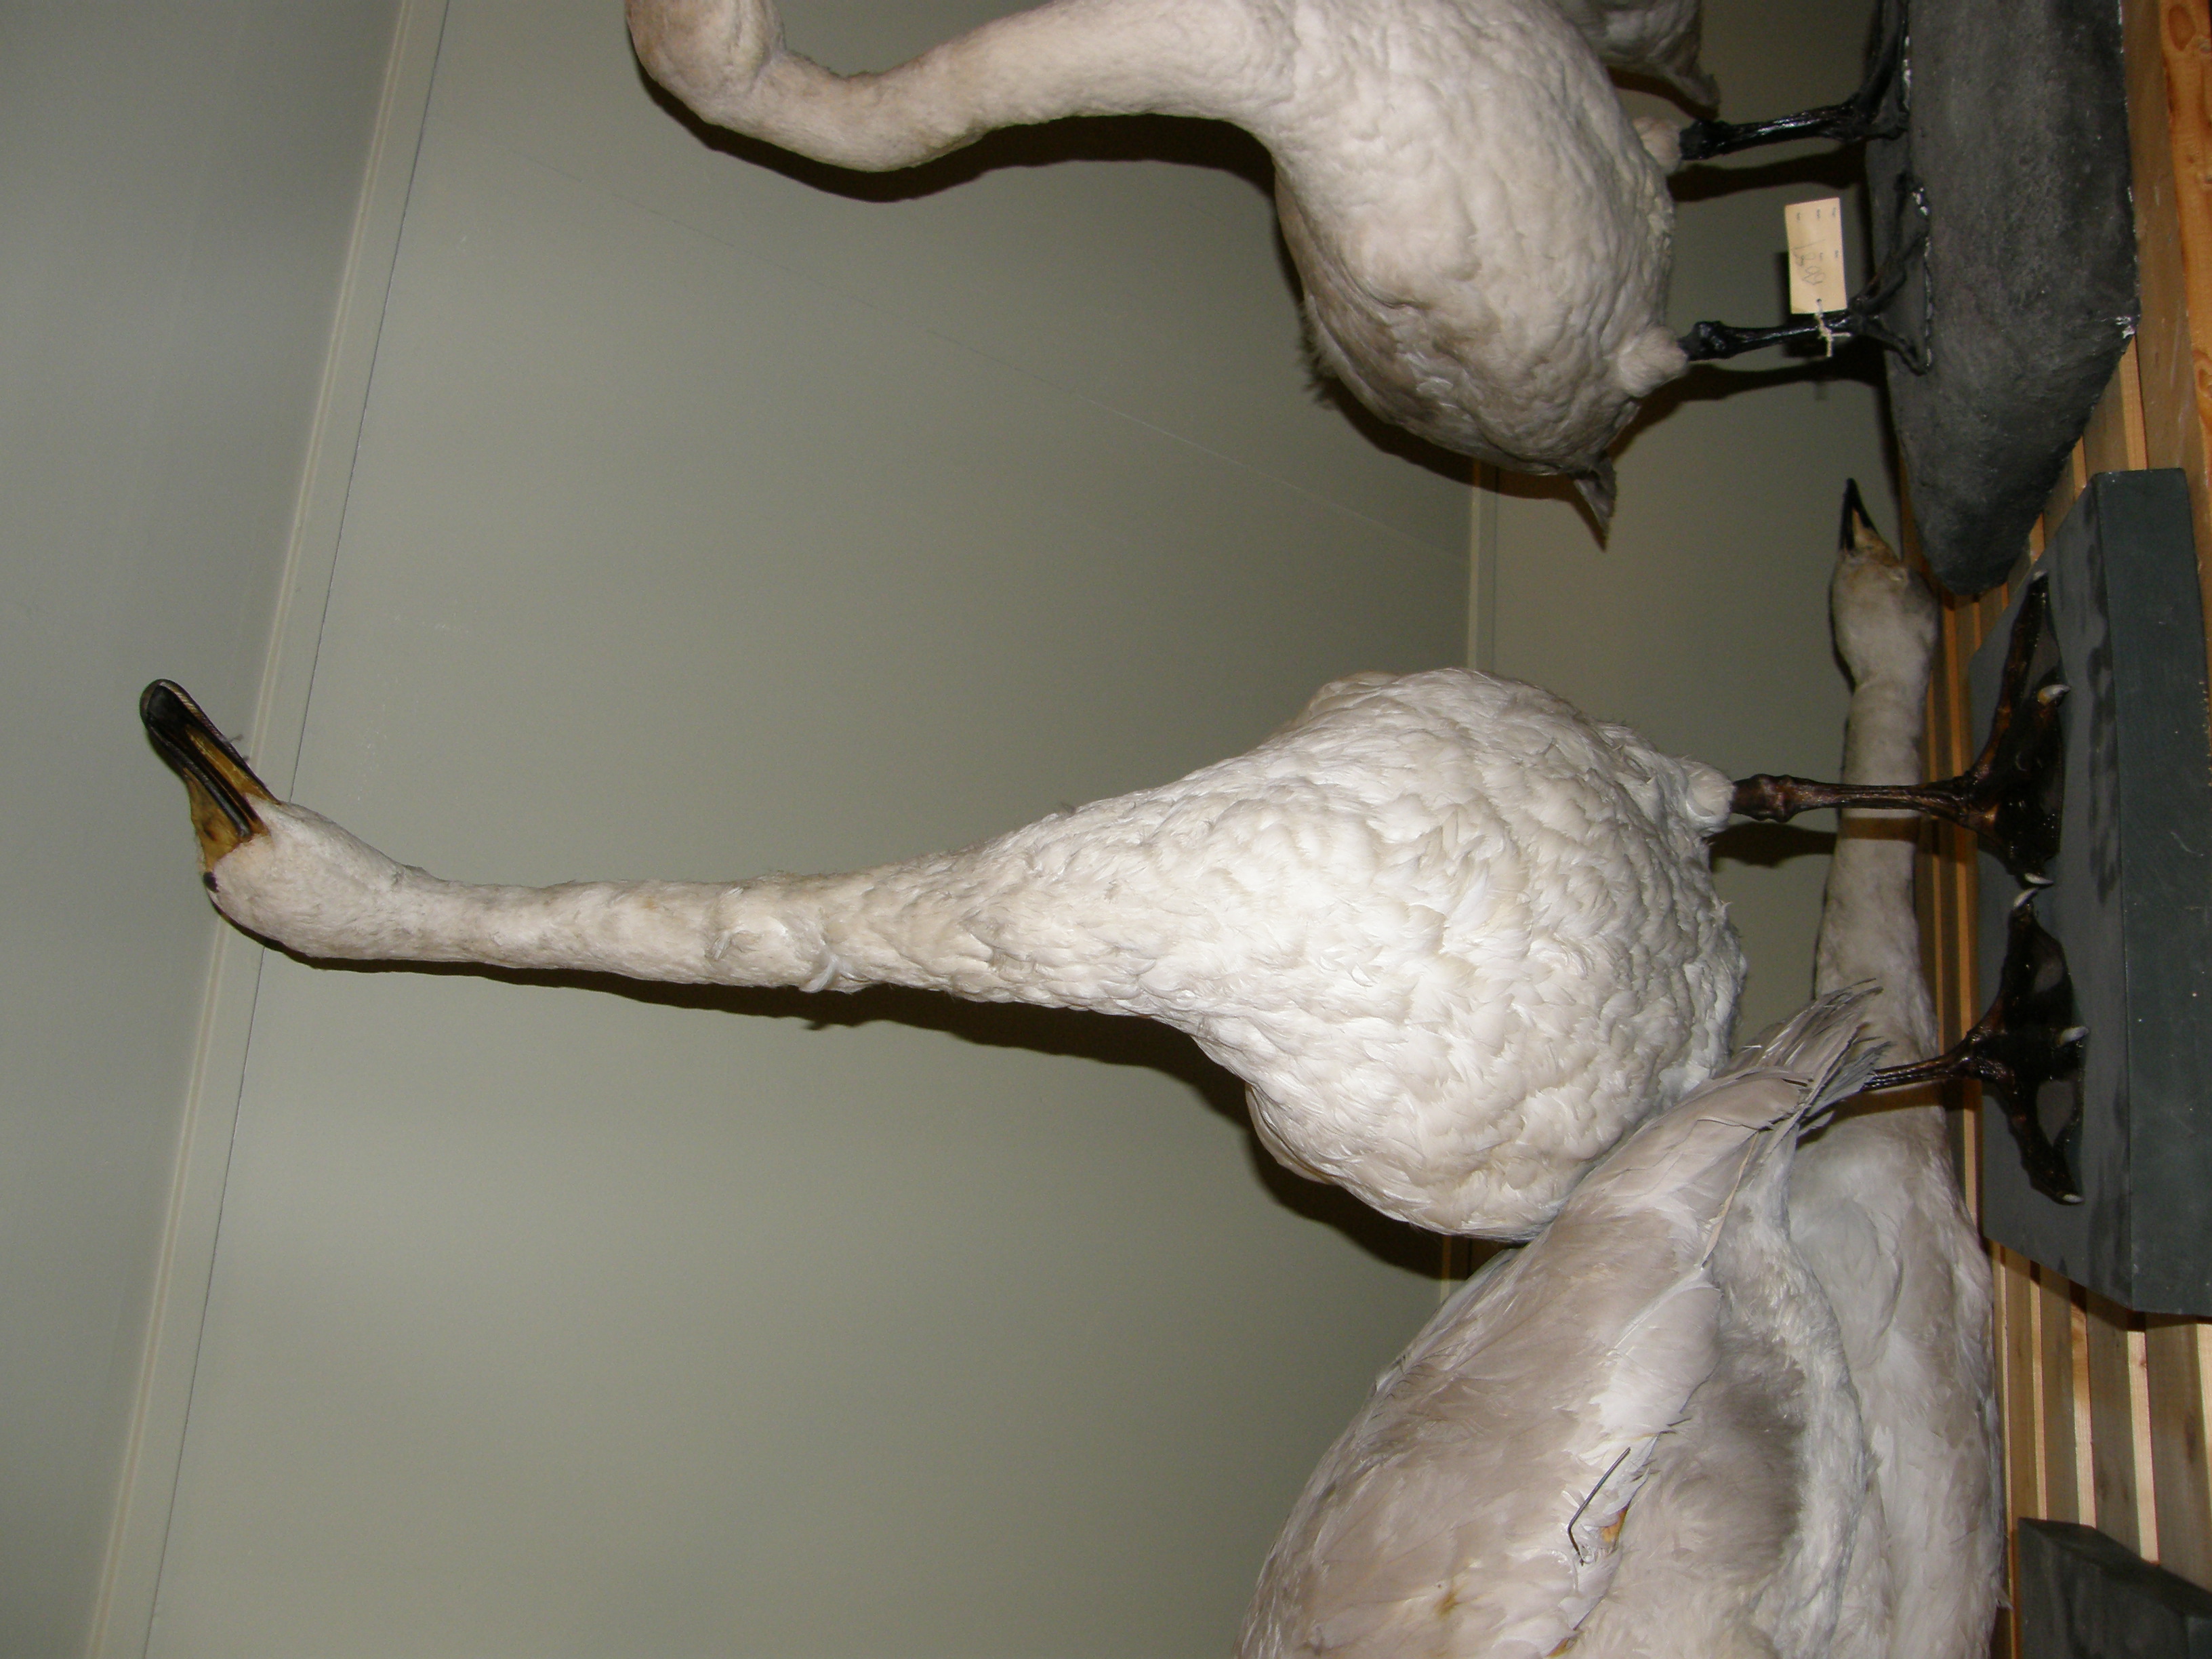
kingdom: Animalia
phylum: Chordata
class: Aves
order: Anseriformes
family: Anatidae
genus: Cygnus
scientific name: Cygnus cygnus
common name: Whooper swan
